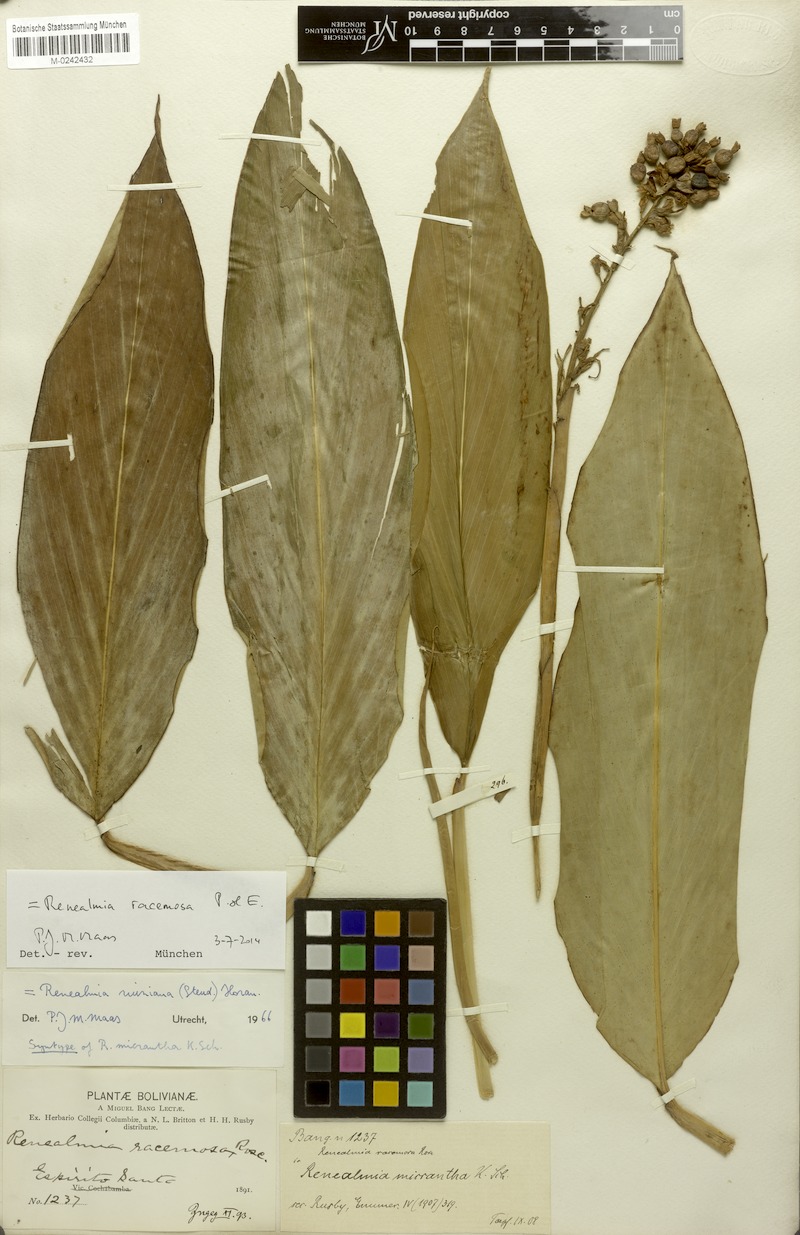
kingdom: Plantae
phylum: Tracheophyta
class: Liliopsida
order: Zingiberales
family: Zingiberaceae
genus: Renealmia
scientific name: Renealmia racemosa
